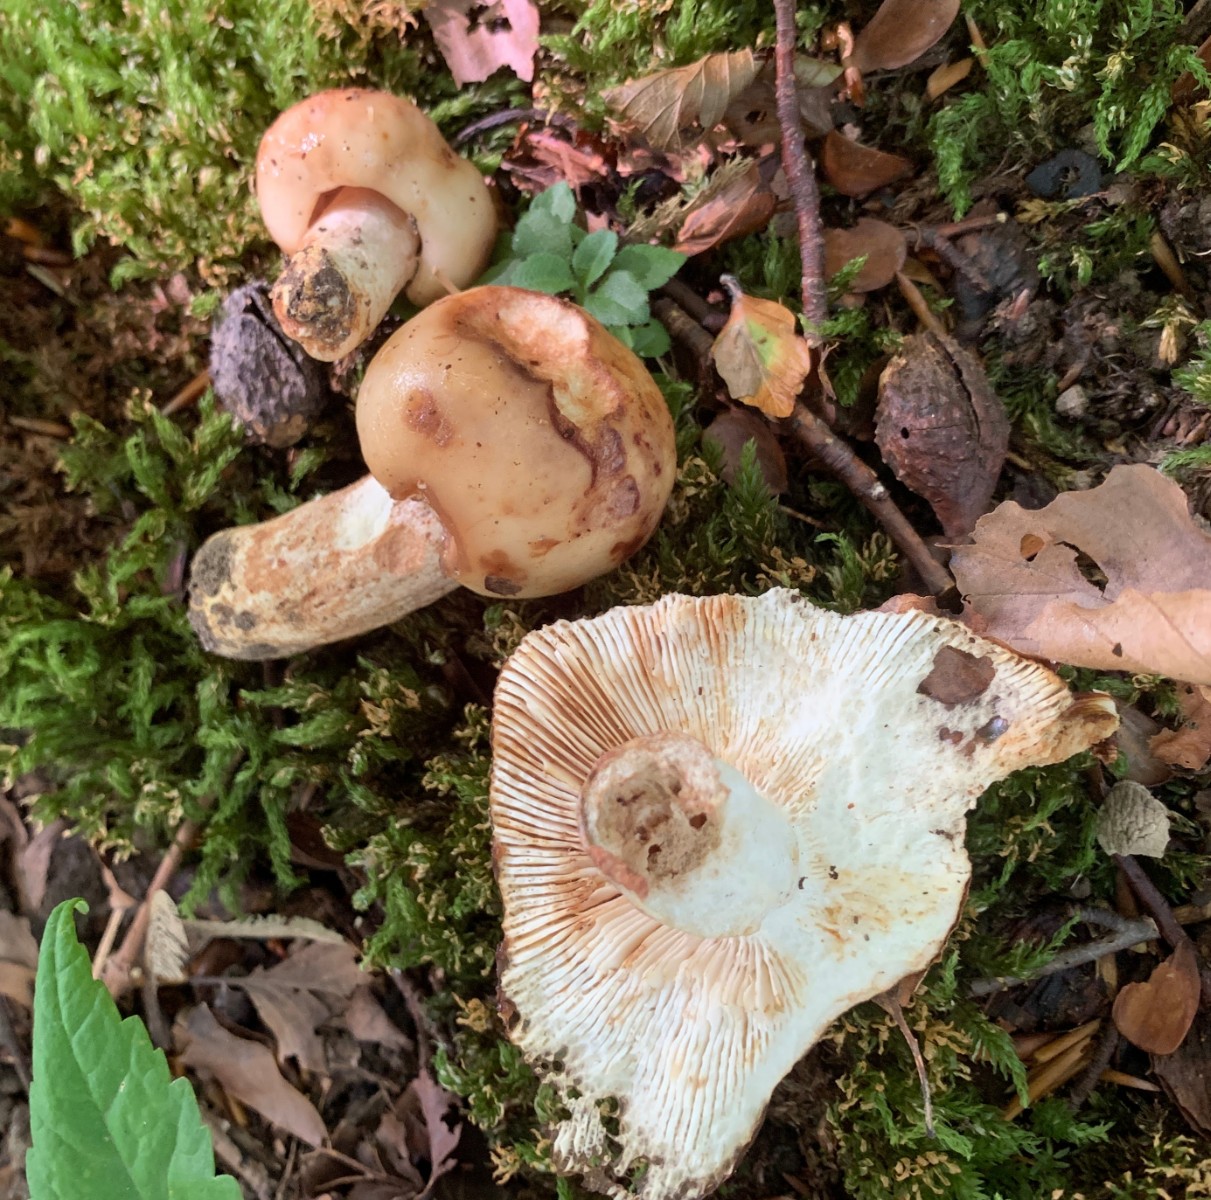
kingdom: Fungi
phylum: Basidiomycota
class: Agaricomycetes
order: Russulales
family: Russulaceae
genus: Russula
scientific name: Russula foetens
